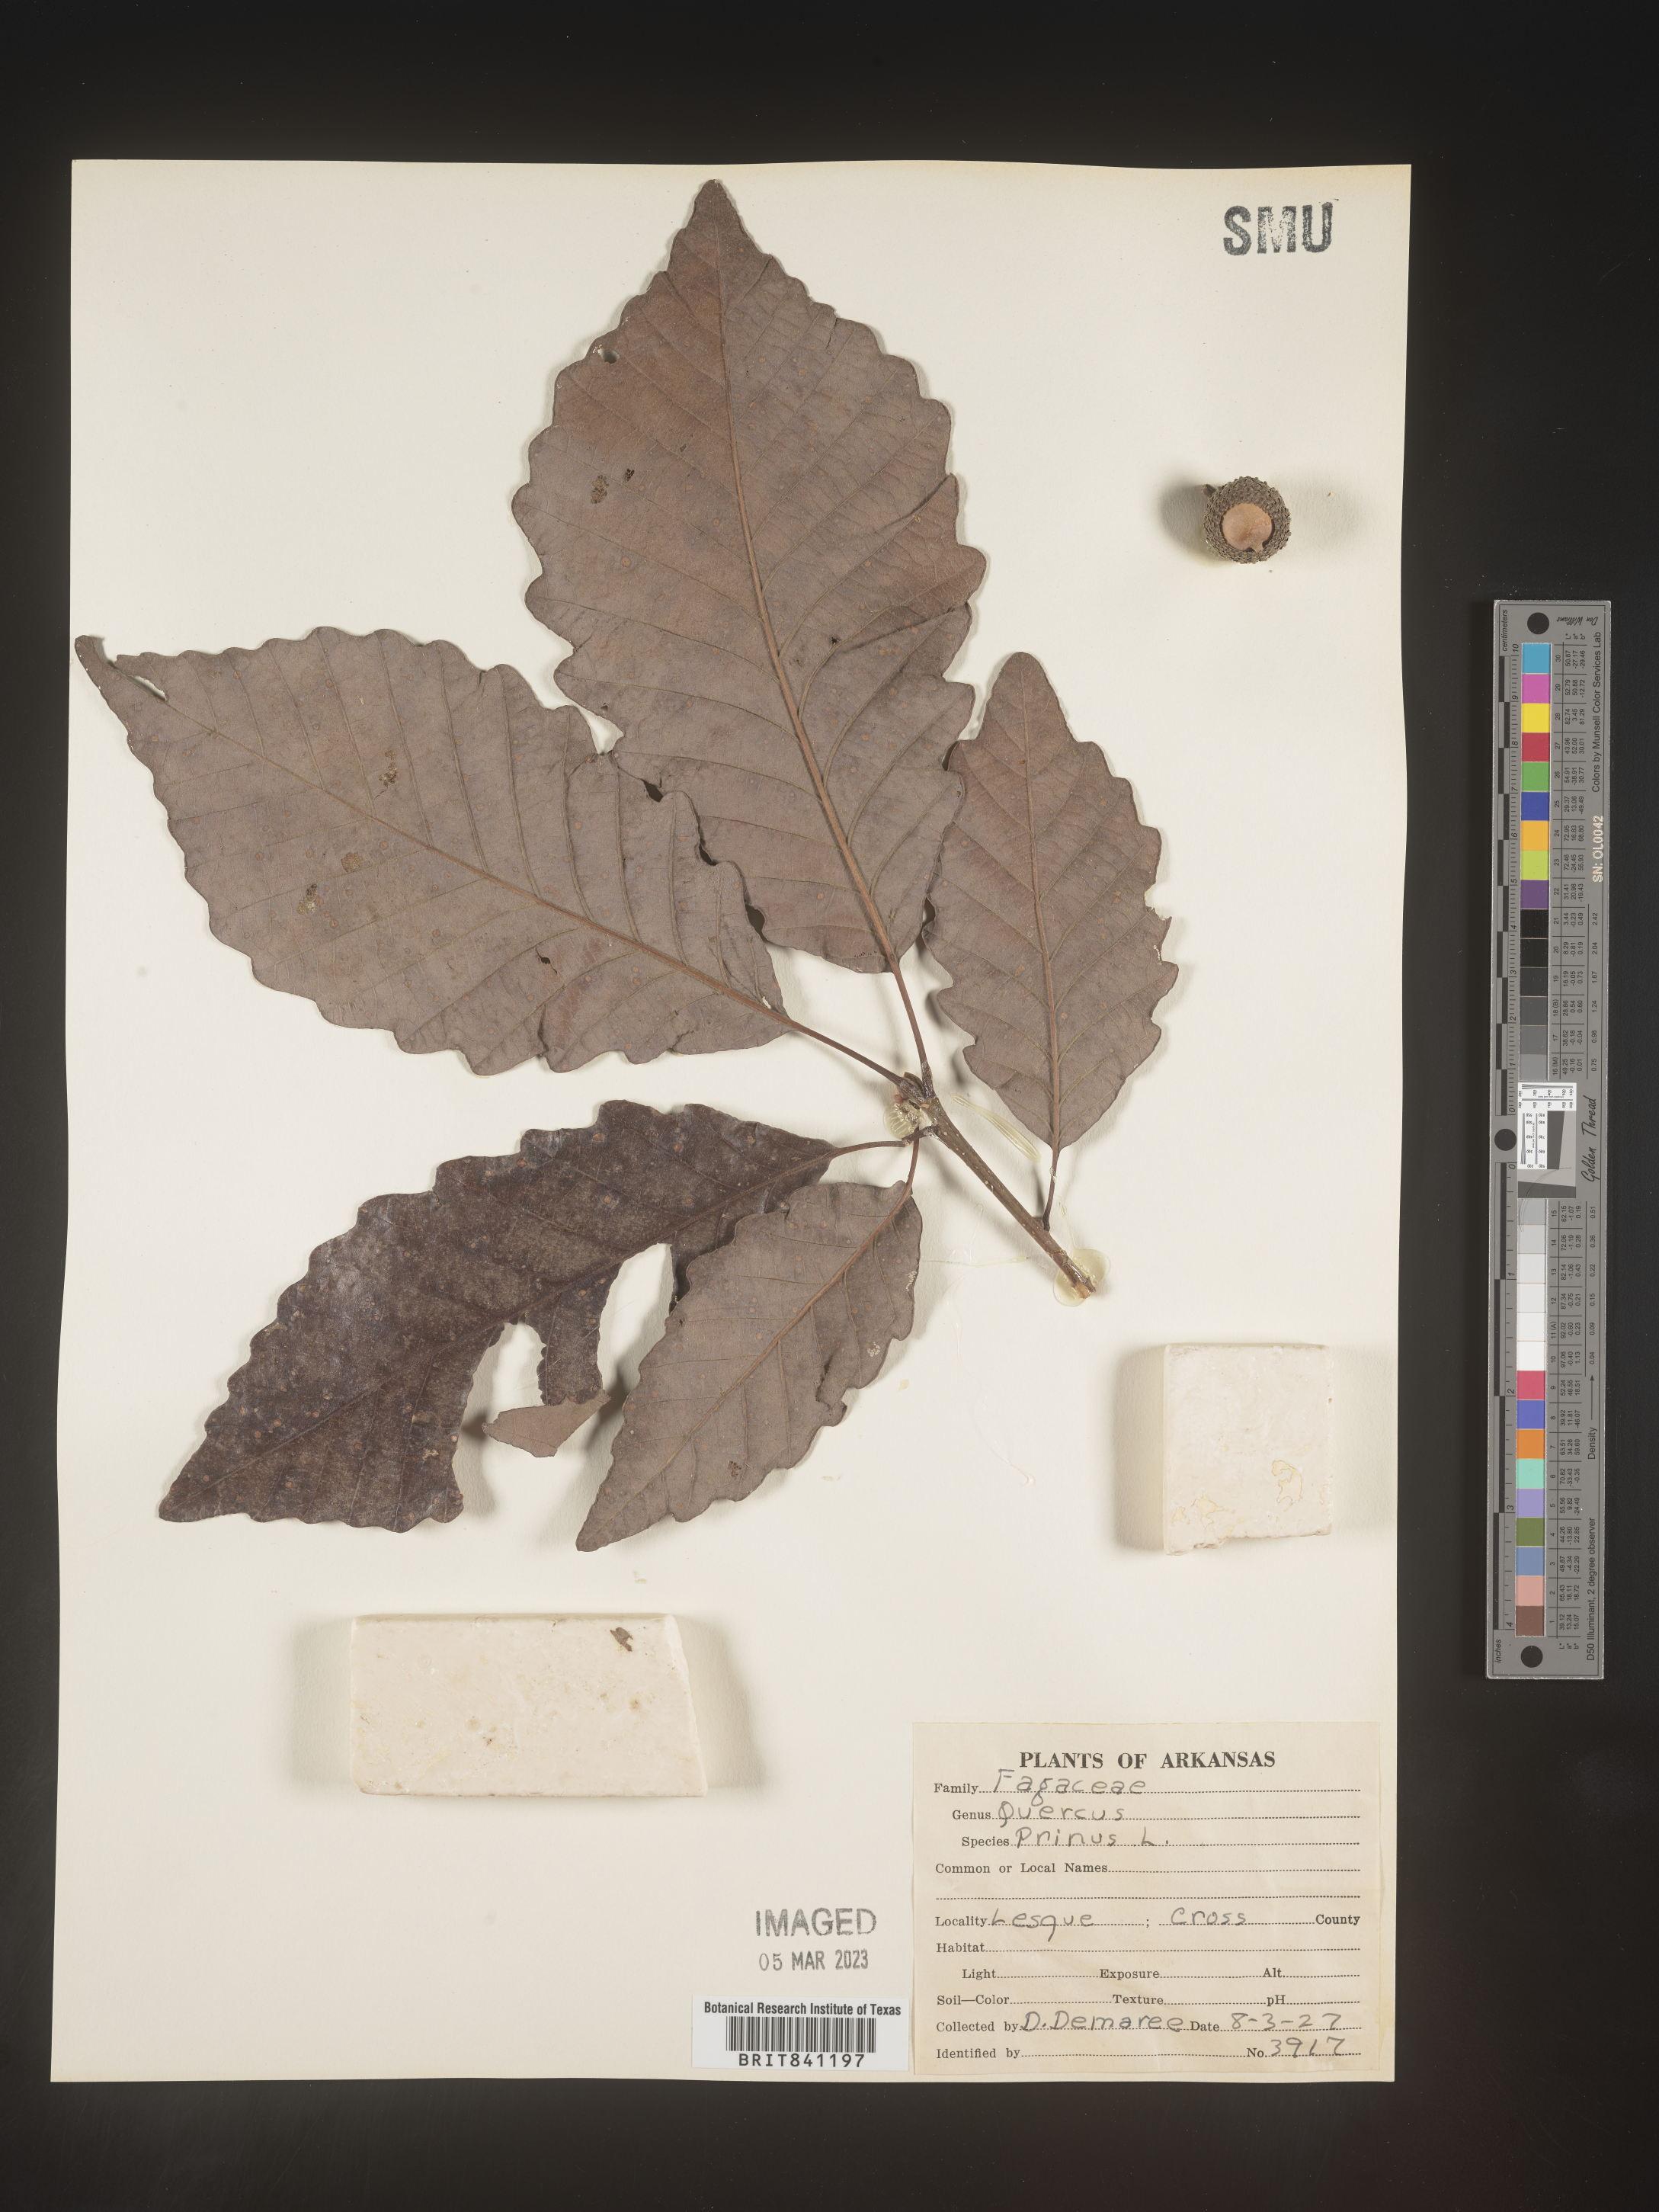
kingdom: Plantae
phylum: Tracheophyta
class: Magnoliopsida
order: Fagales
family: Fagaceae
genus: Quercus
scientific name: Quercus michauxii
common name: Swamp chestnut oak
